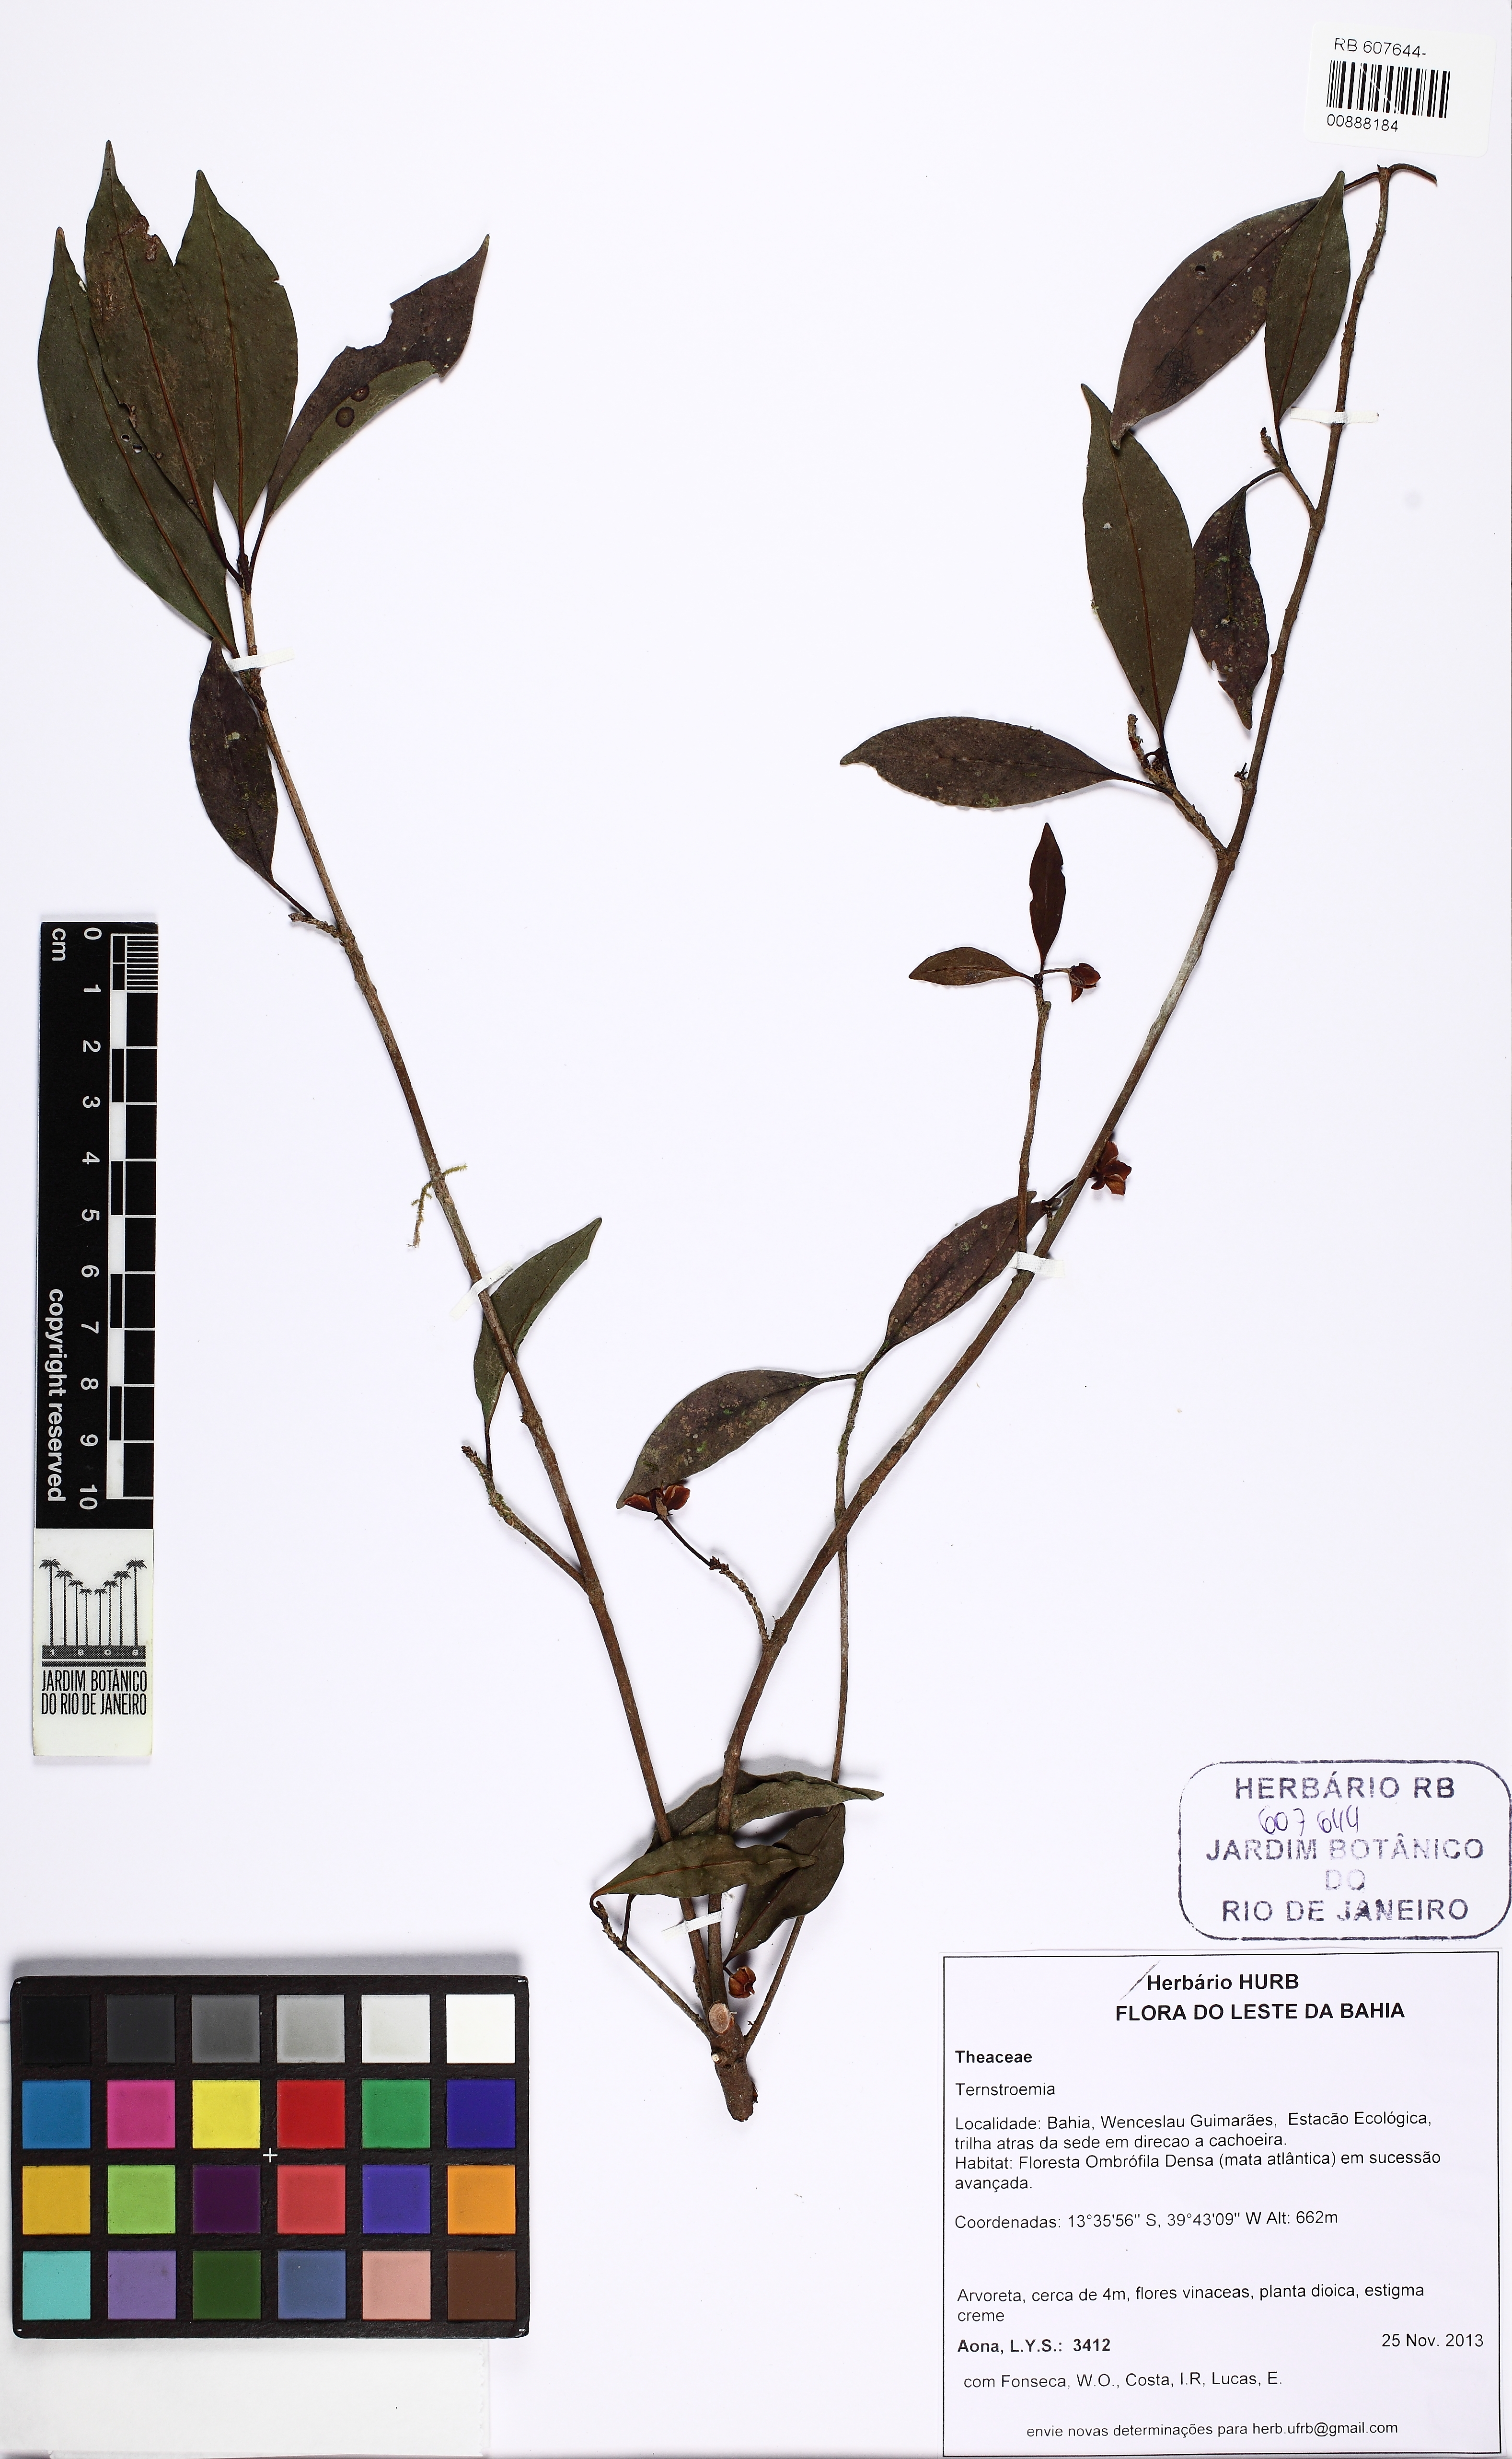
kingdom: Plantae
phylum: Tracheophyta
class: Magnoliopsida
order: Ericales
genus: Ternstroemia
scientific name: Ternstroemia
